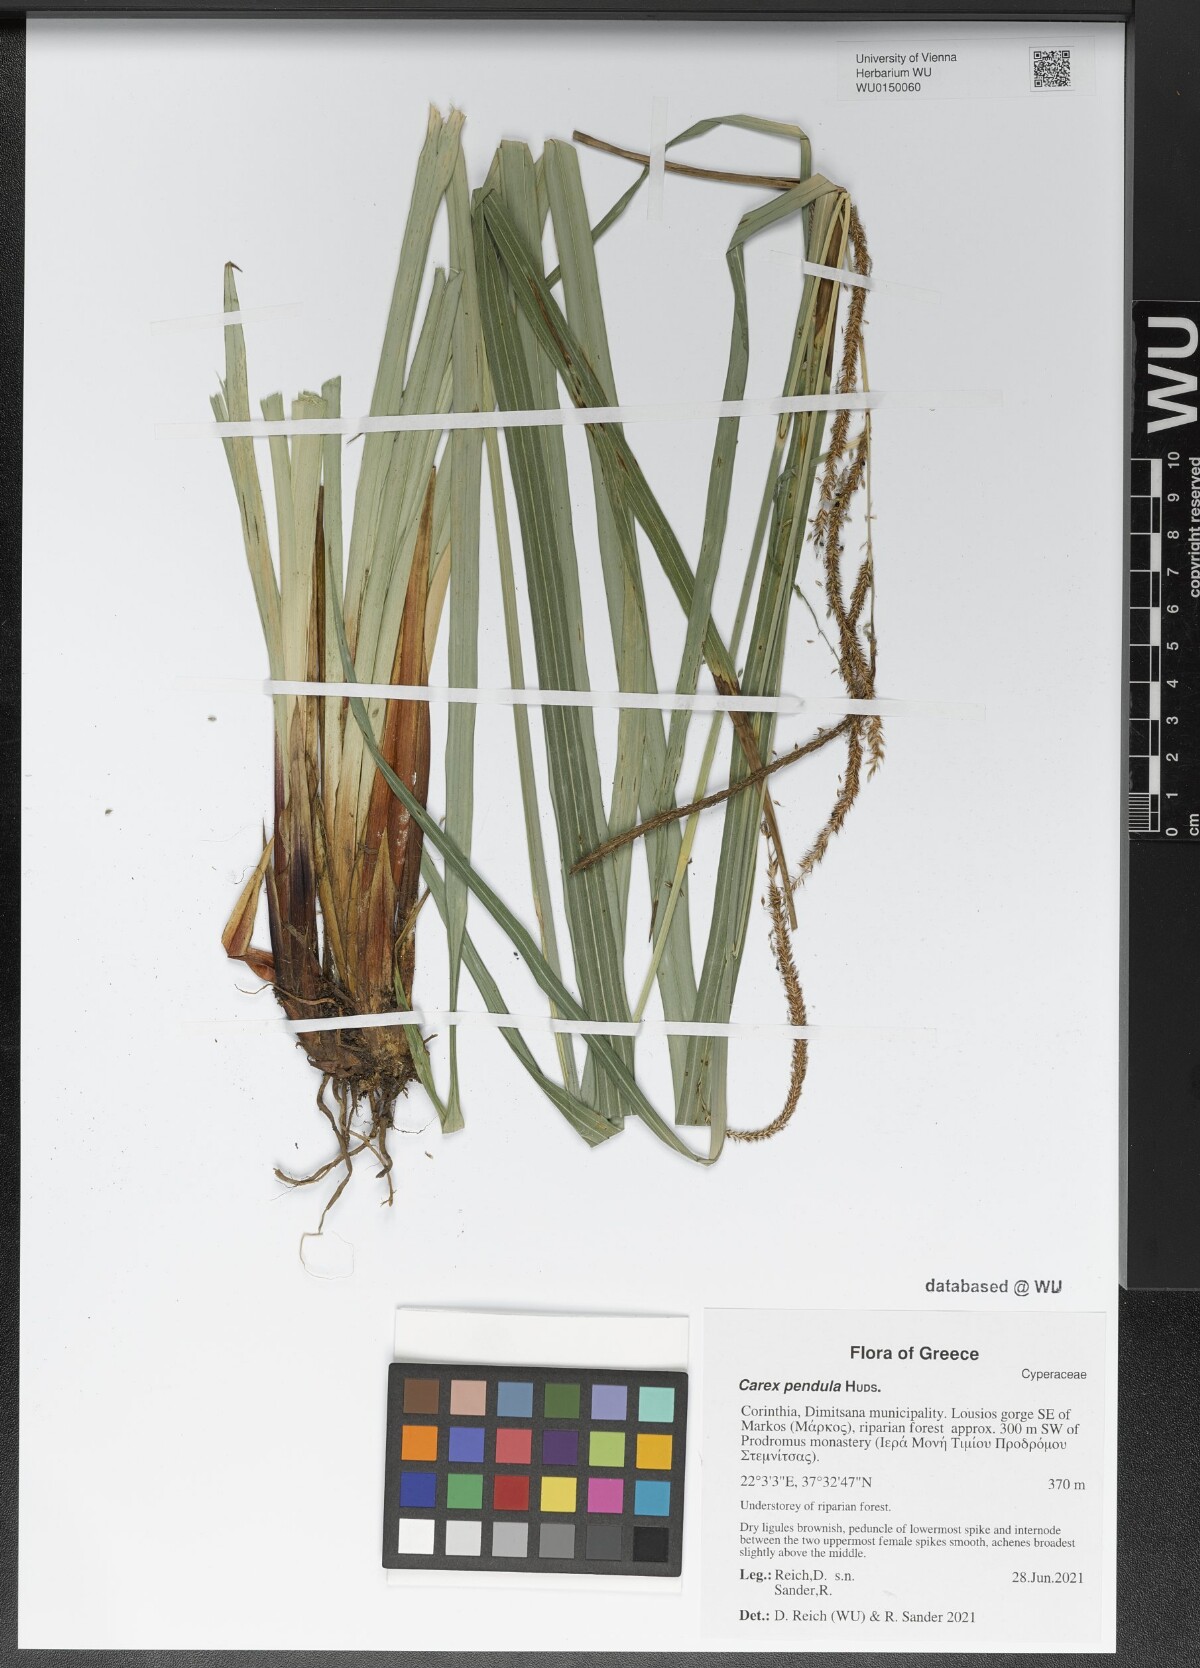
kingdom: Plantae
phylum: Tracheophyta
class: Liliopsida
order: Poales
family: Cyperaceae
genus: Carex
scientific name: Carex pendula
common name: Pendulous sedge
